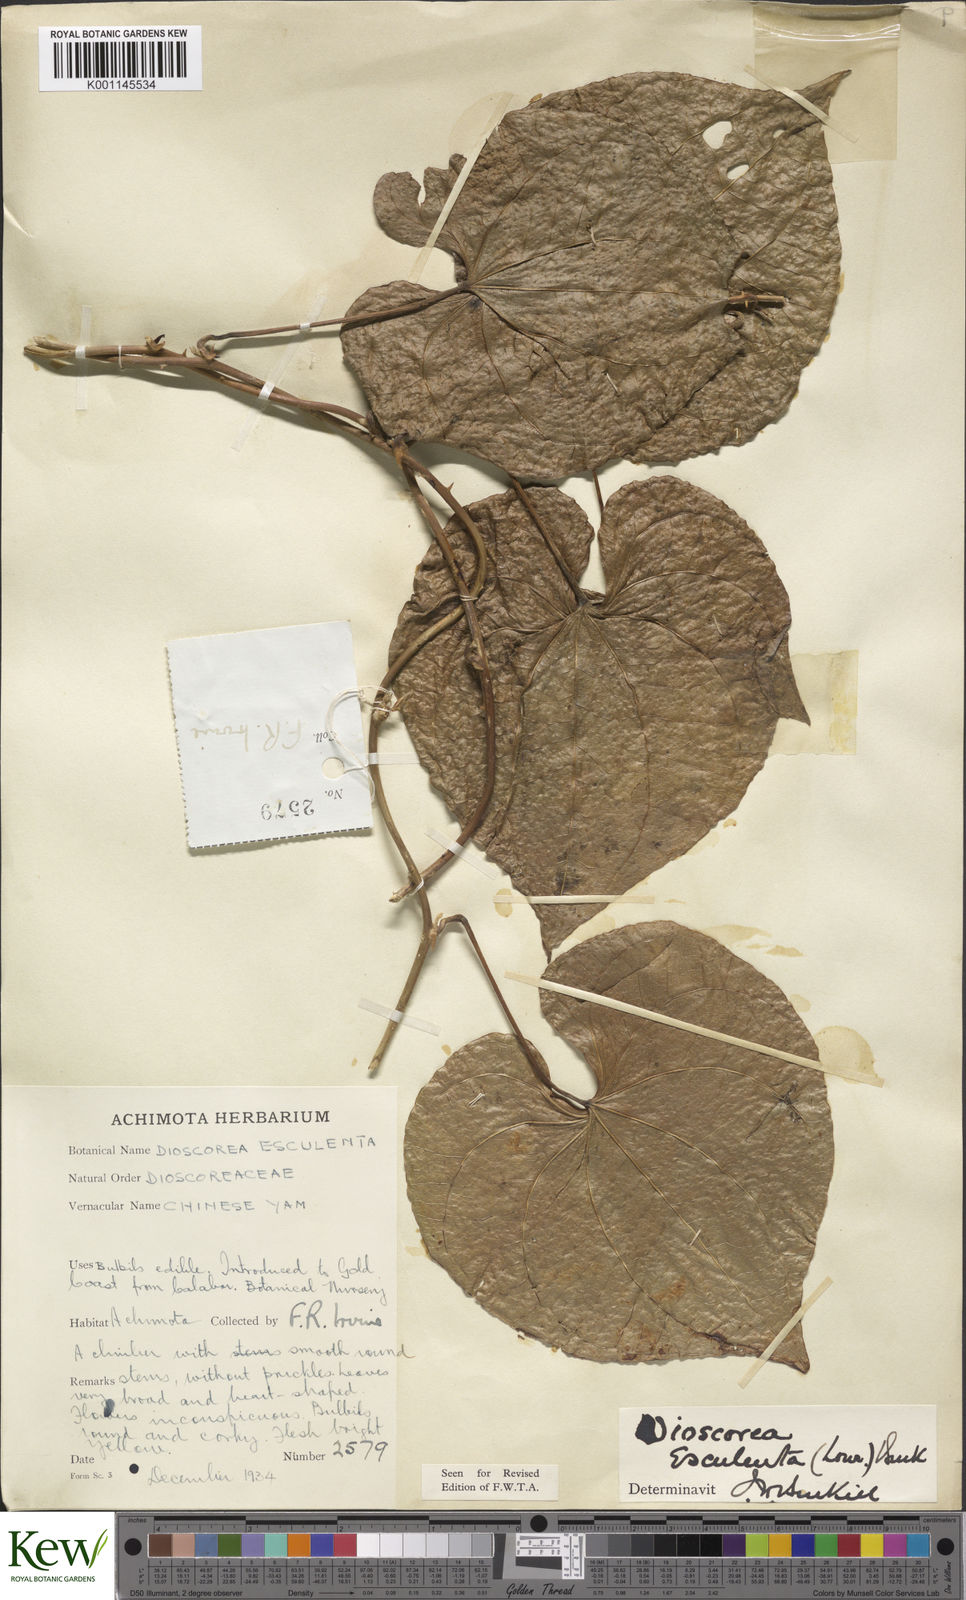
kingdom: Plantae
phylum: Tracheophyta
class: Liliopsida
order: Dioscoreales
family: Dioscoreaceae
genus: Dioscorea
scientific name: Dioscorea esculenta
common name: Chinese yam
